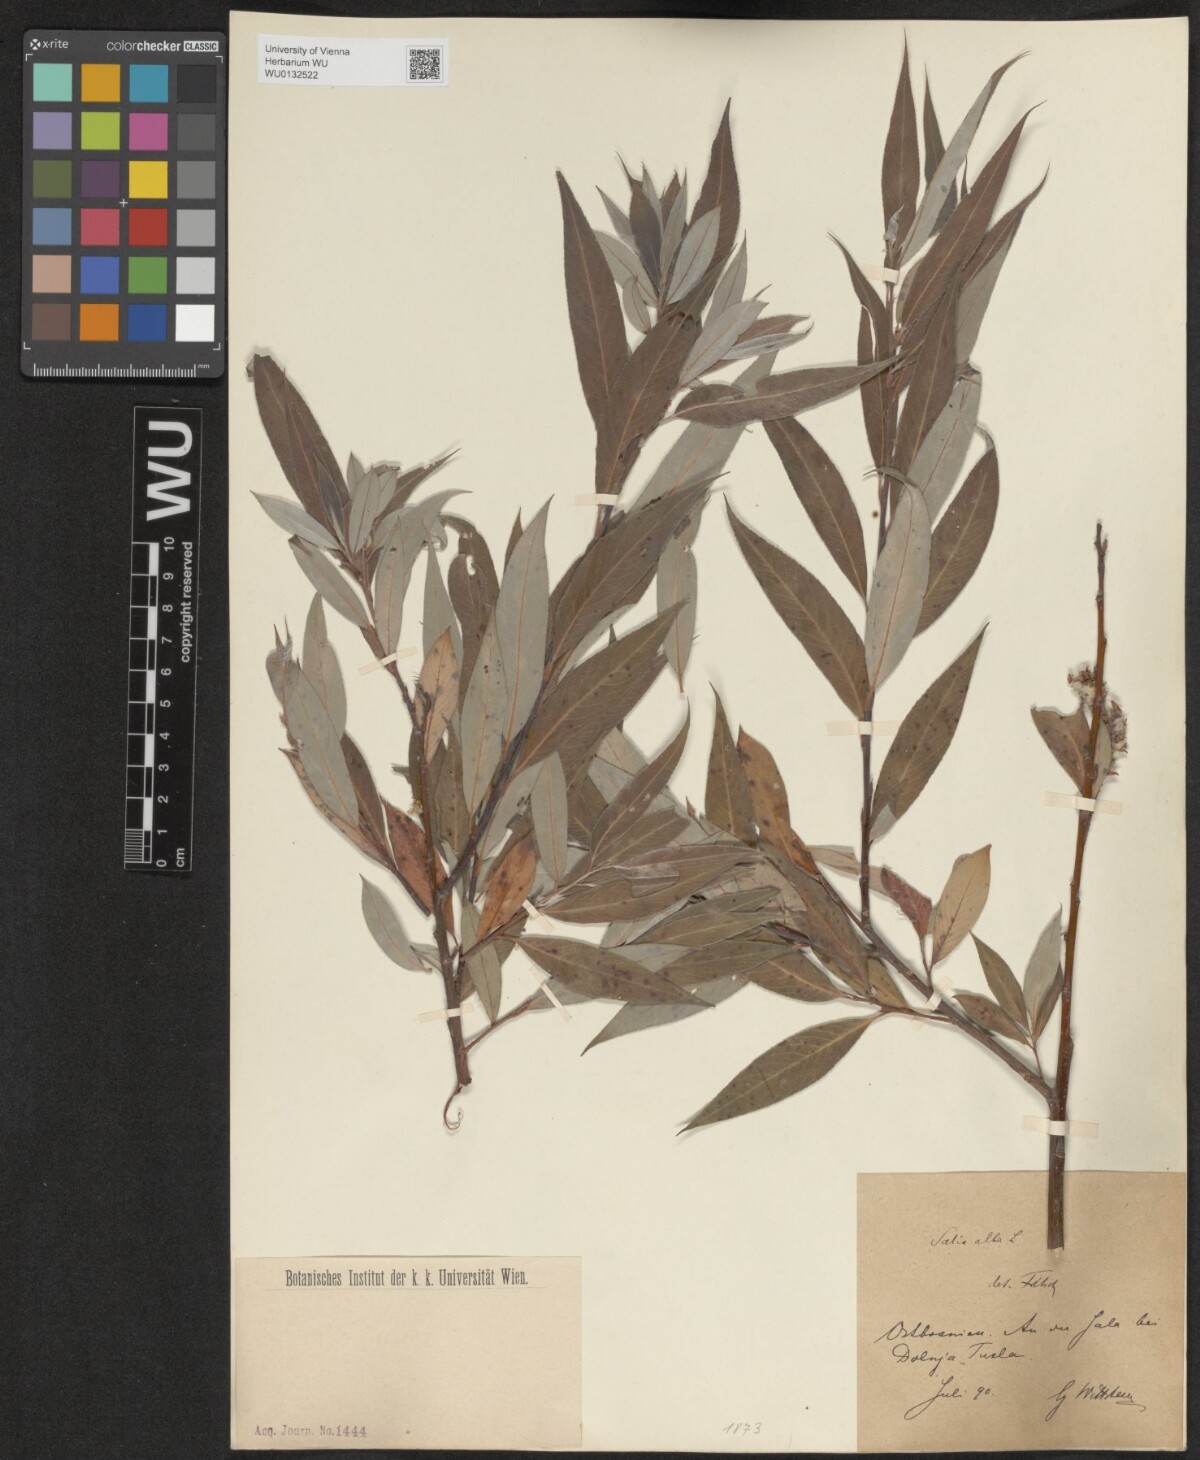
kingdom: Plantae
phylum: Tracheophyta
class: Magnoliopsida
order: Malpighiales
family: Salicaceae
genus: Salix
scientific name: Salix alba
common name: White willow
